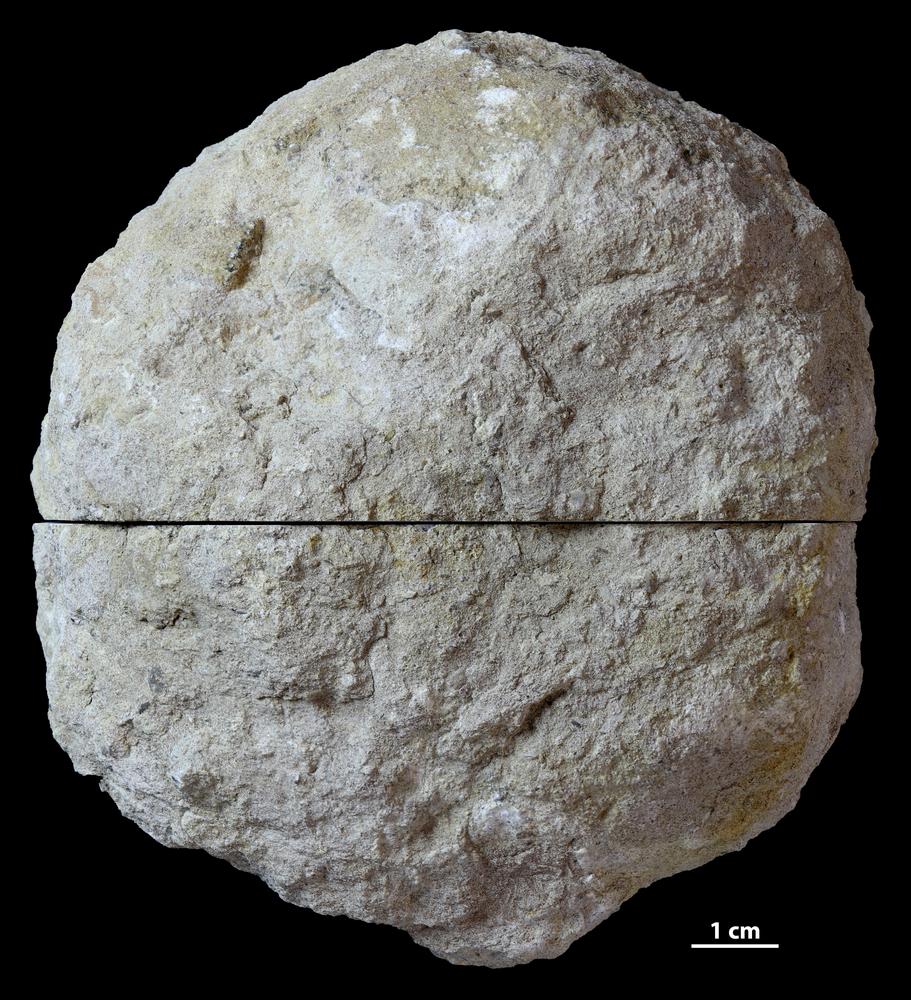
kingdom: Animalia
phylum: Bryozoa
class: Stenolaemata
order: Trepostomatida
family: Diplotrypidae
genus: Diplotrypa
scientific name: Diplotrypa
